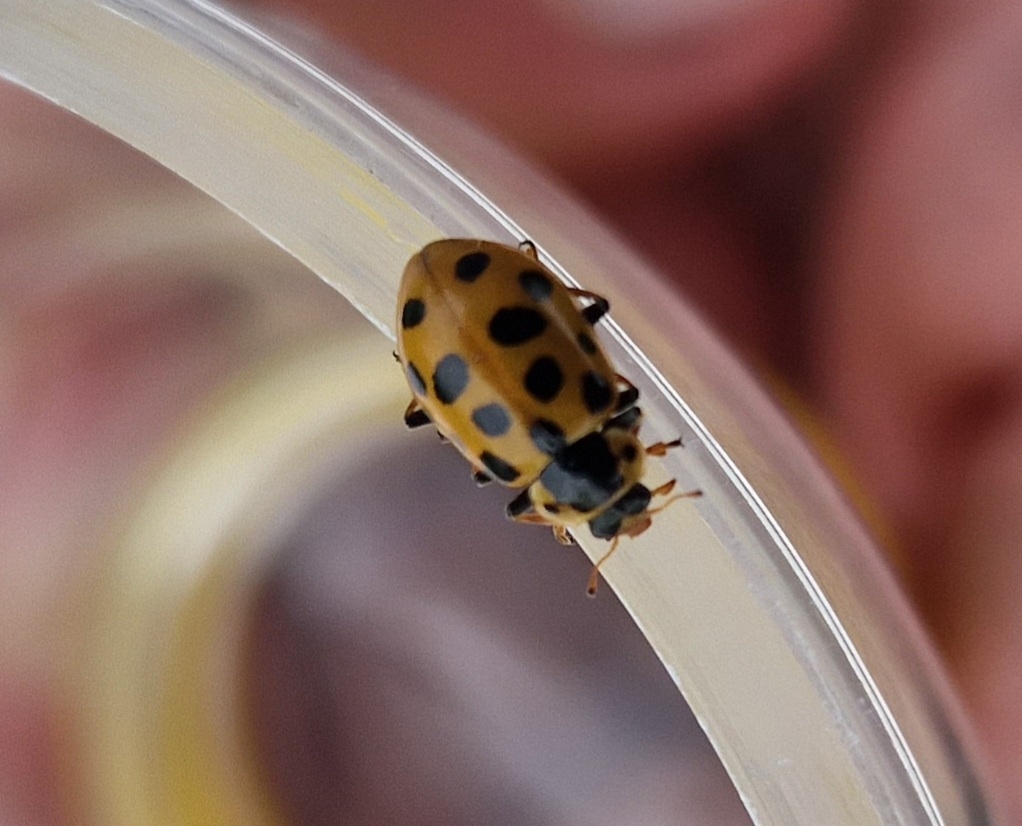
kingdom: Animalia
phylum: Arthropoda
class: Insecta
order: Coleoptera
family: Coccinellidae
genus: Hippodamia
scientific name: Hippodamia tredecimpunctata
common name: Trettenplettet mariehøne
